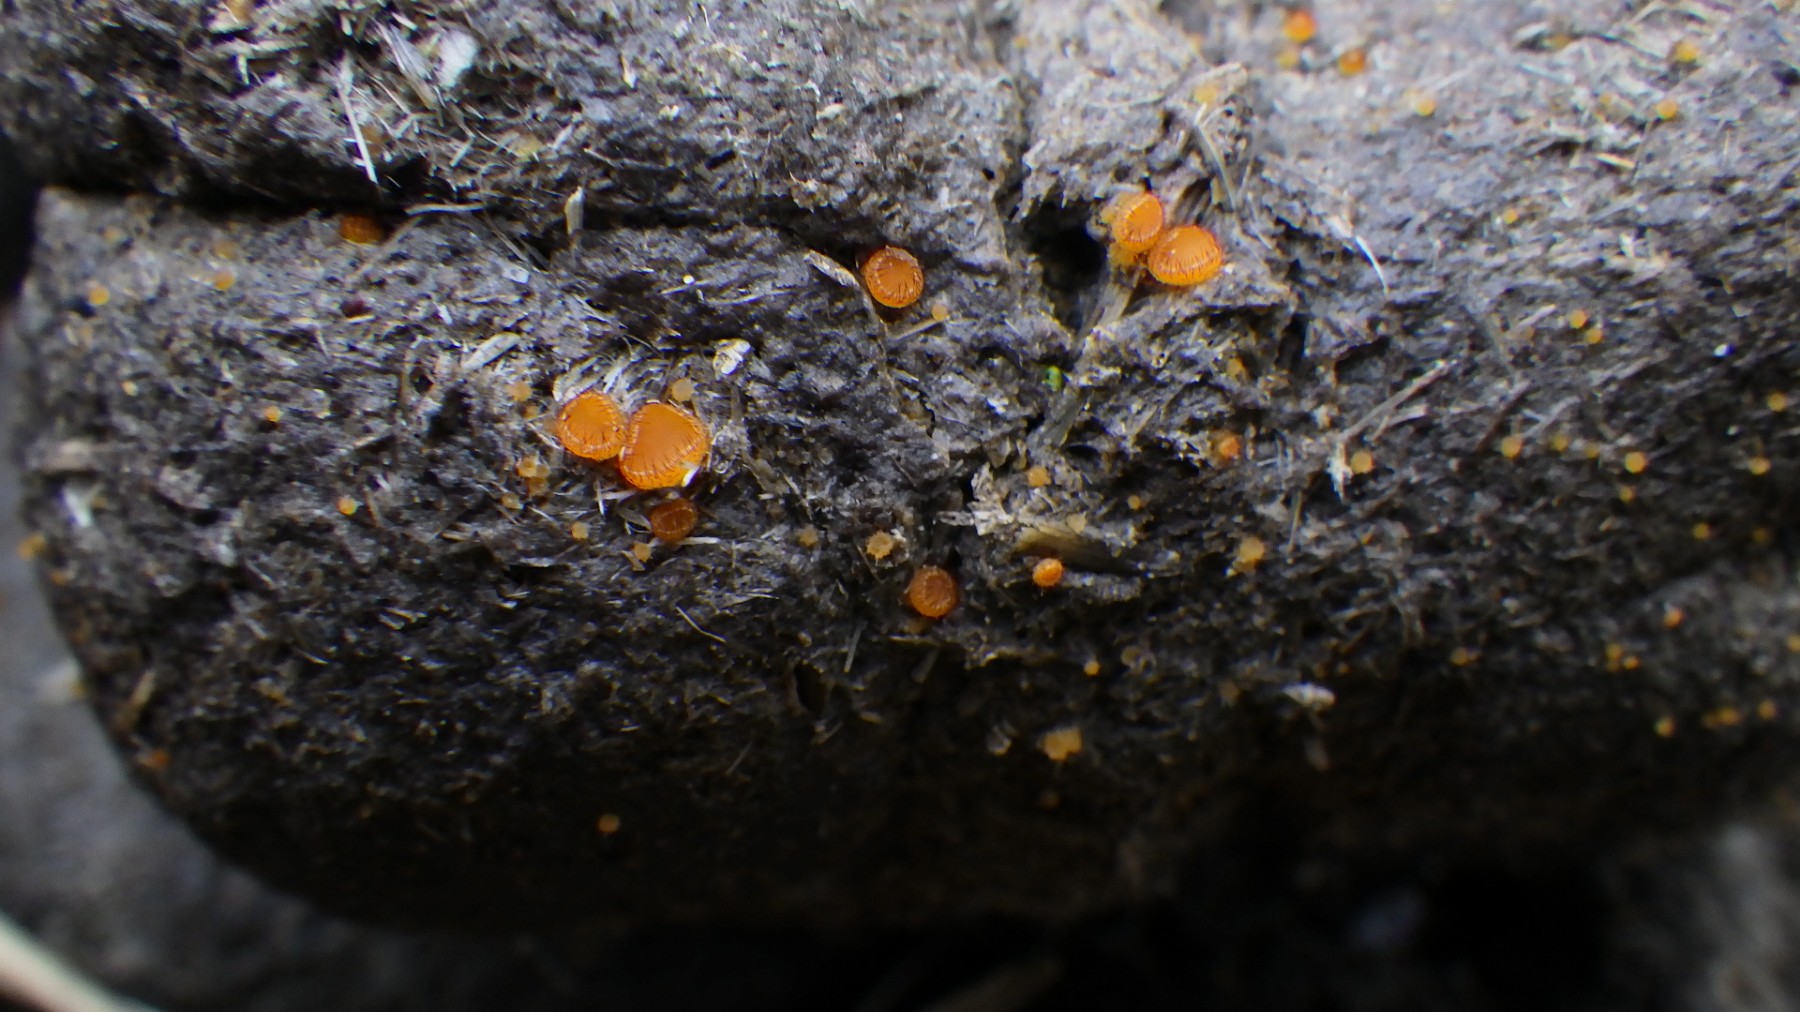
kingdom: Fungi
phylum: Ascomycota
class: Pezizomycetes
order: Pezizales
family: Pyronemataceae
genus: Cheilymenia
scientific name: Cheilymenia
